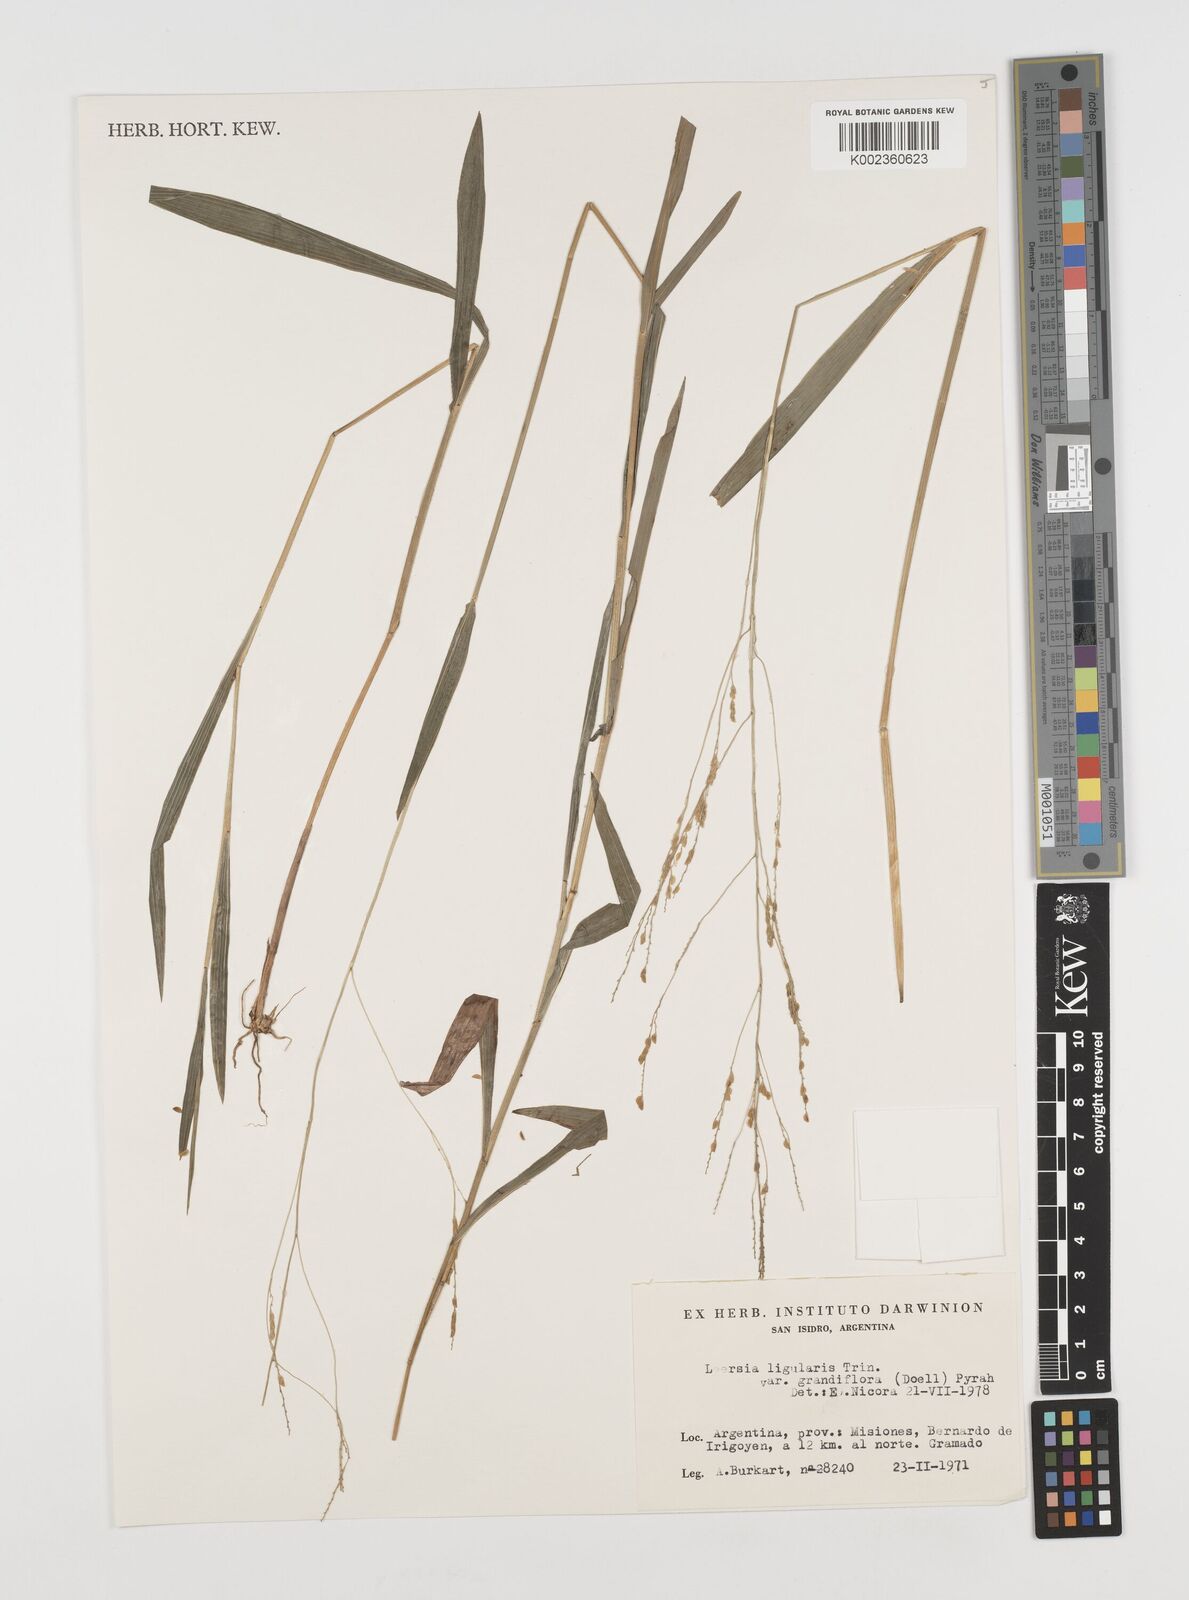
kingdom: Plantae
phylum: Tracheophyta
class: Liliopsida
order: Poales
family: Poaceae
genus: Leersia
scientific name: Leersia hexandra
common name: Southern cut grass
